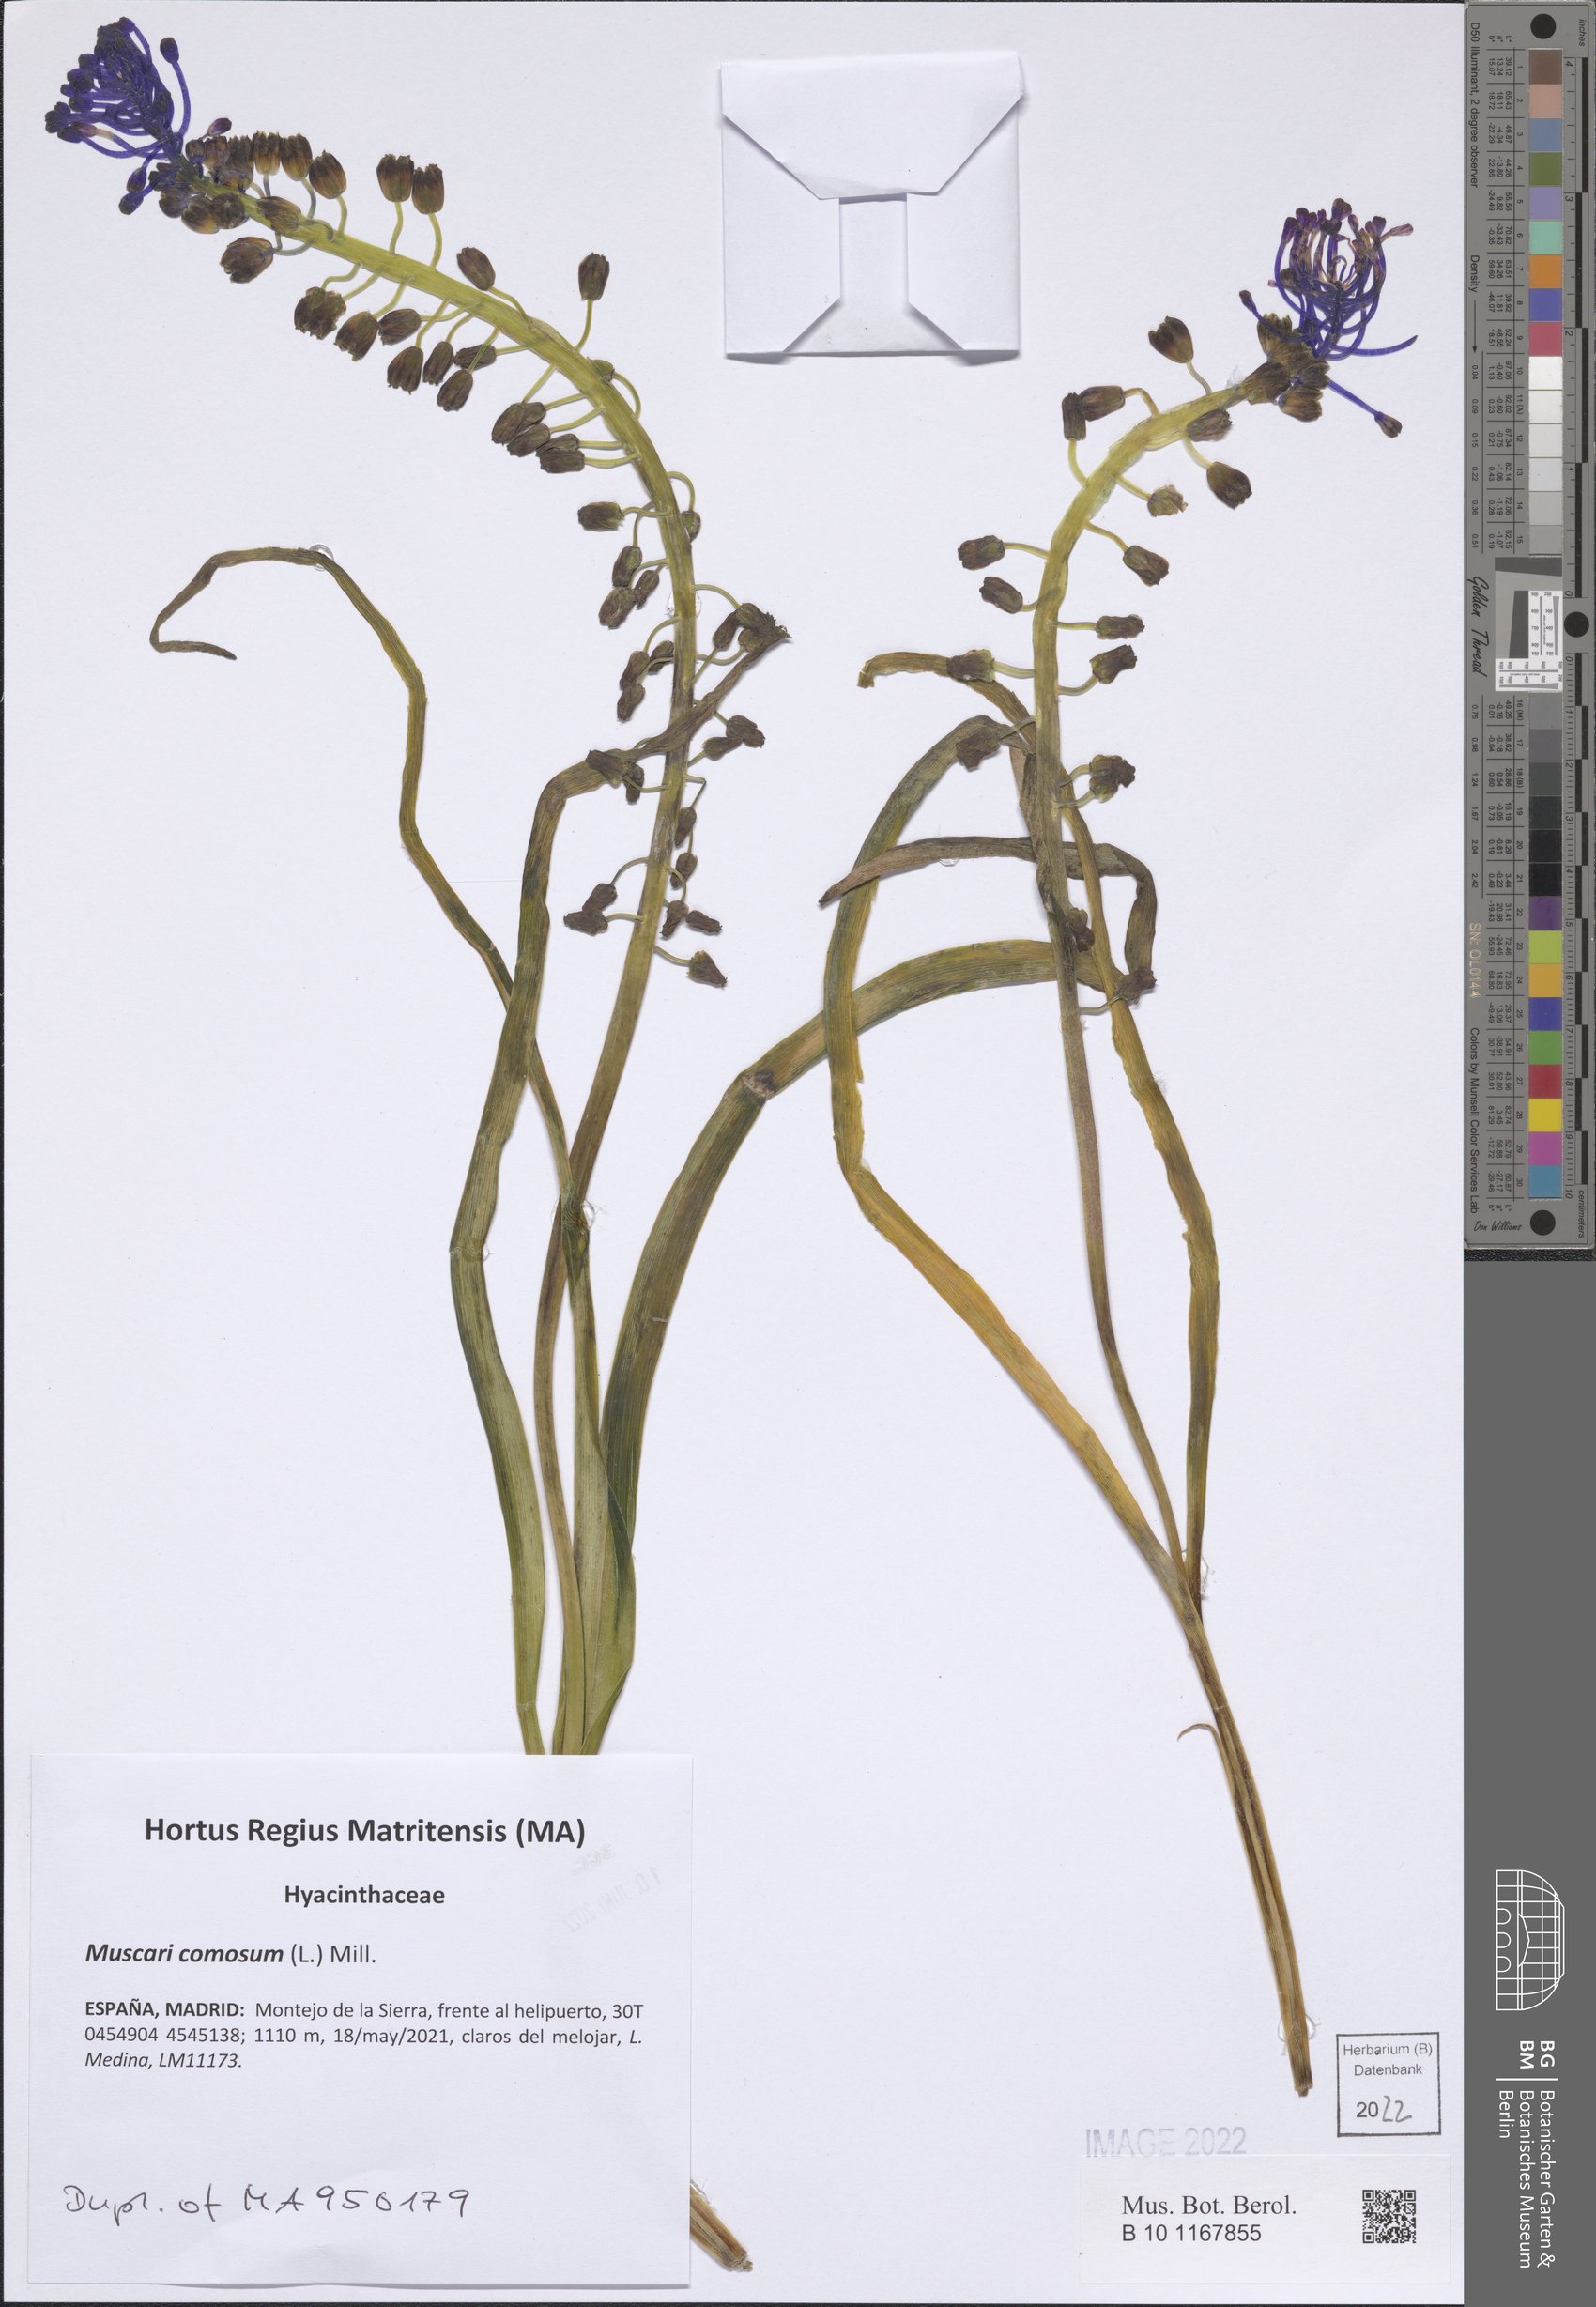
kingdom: Plantae
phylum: Tracheophyta
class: Liliopsida
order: Asparagales
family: Asparagaceae
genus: Muscari
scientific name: Muscari comosum
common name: Tassel hyacinth
